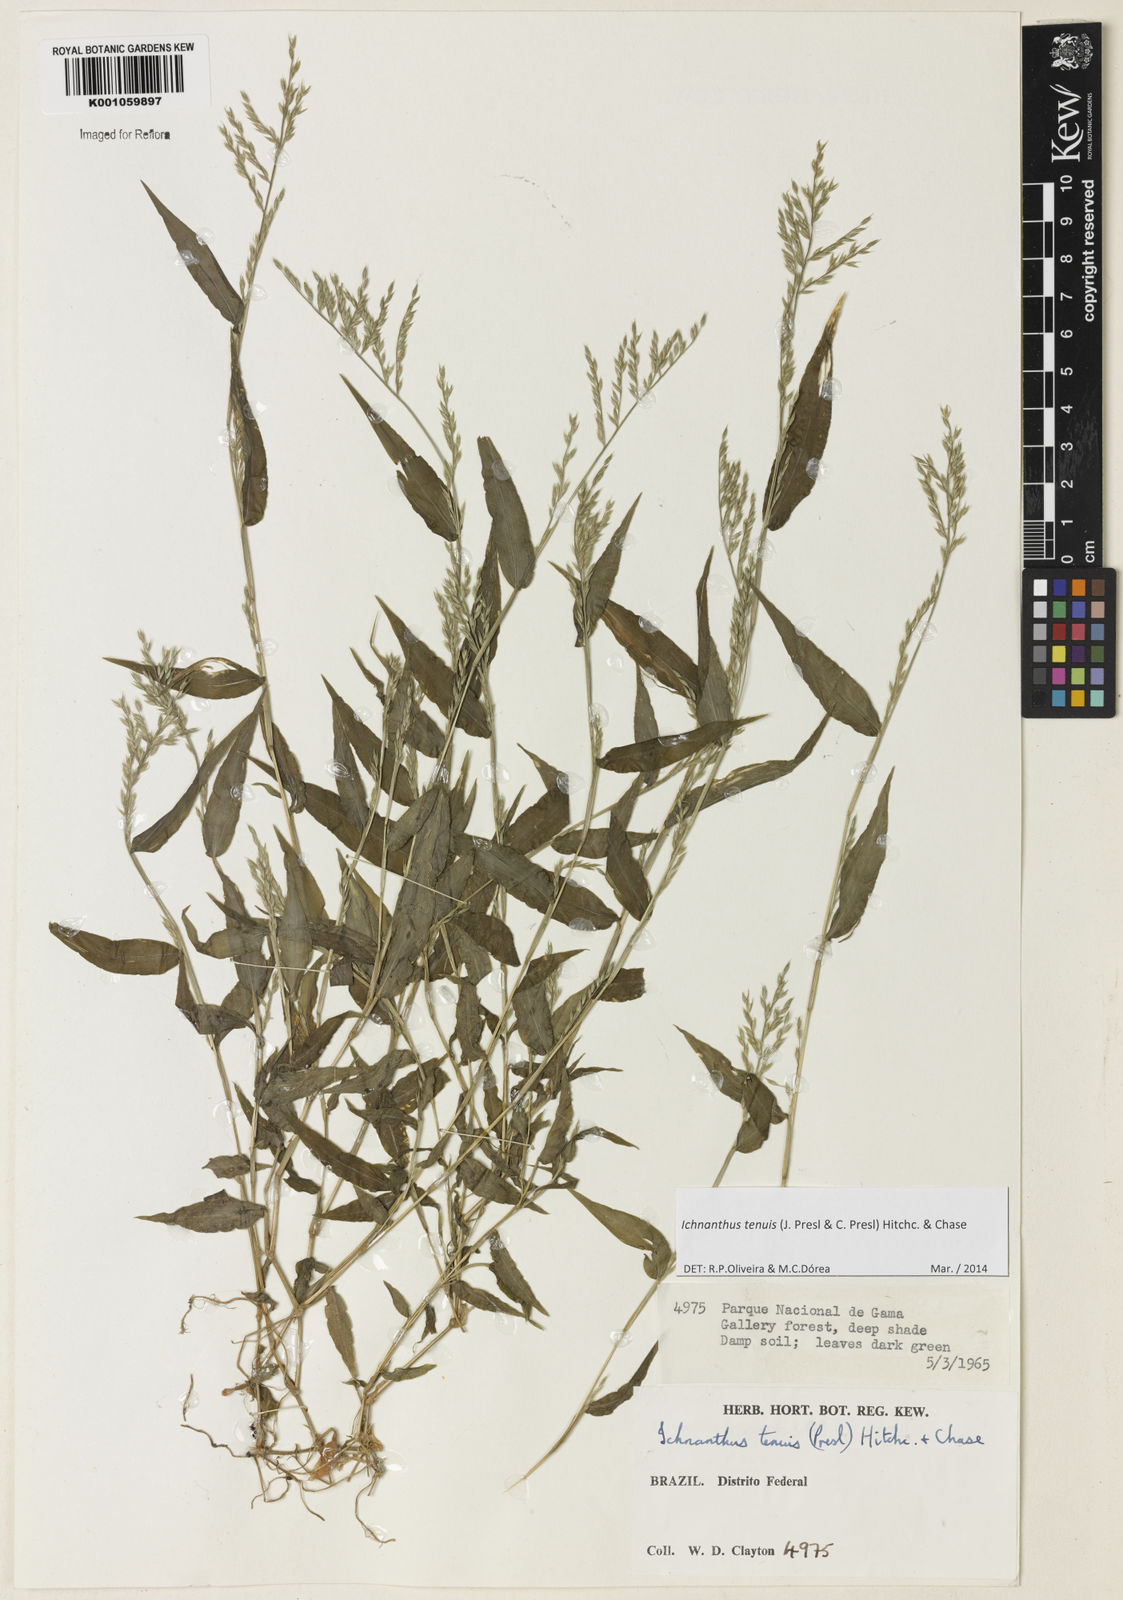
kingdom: Plantae
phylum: Tracheophyta
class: Liliopsida
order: Poales
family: Poaceae
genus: Ichnanthus
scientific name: Ichnanthus tenuis
